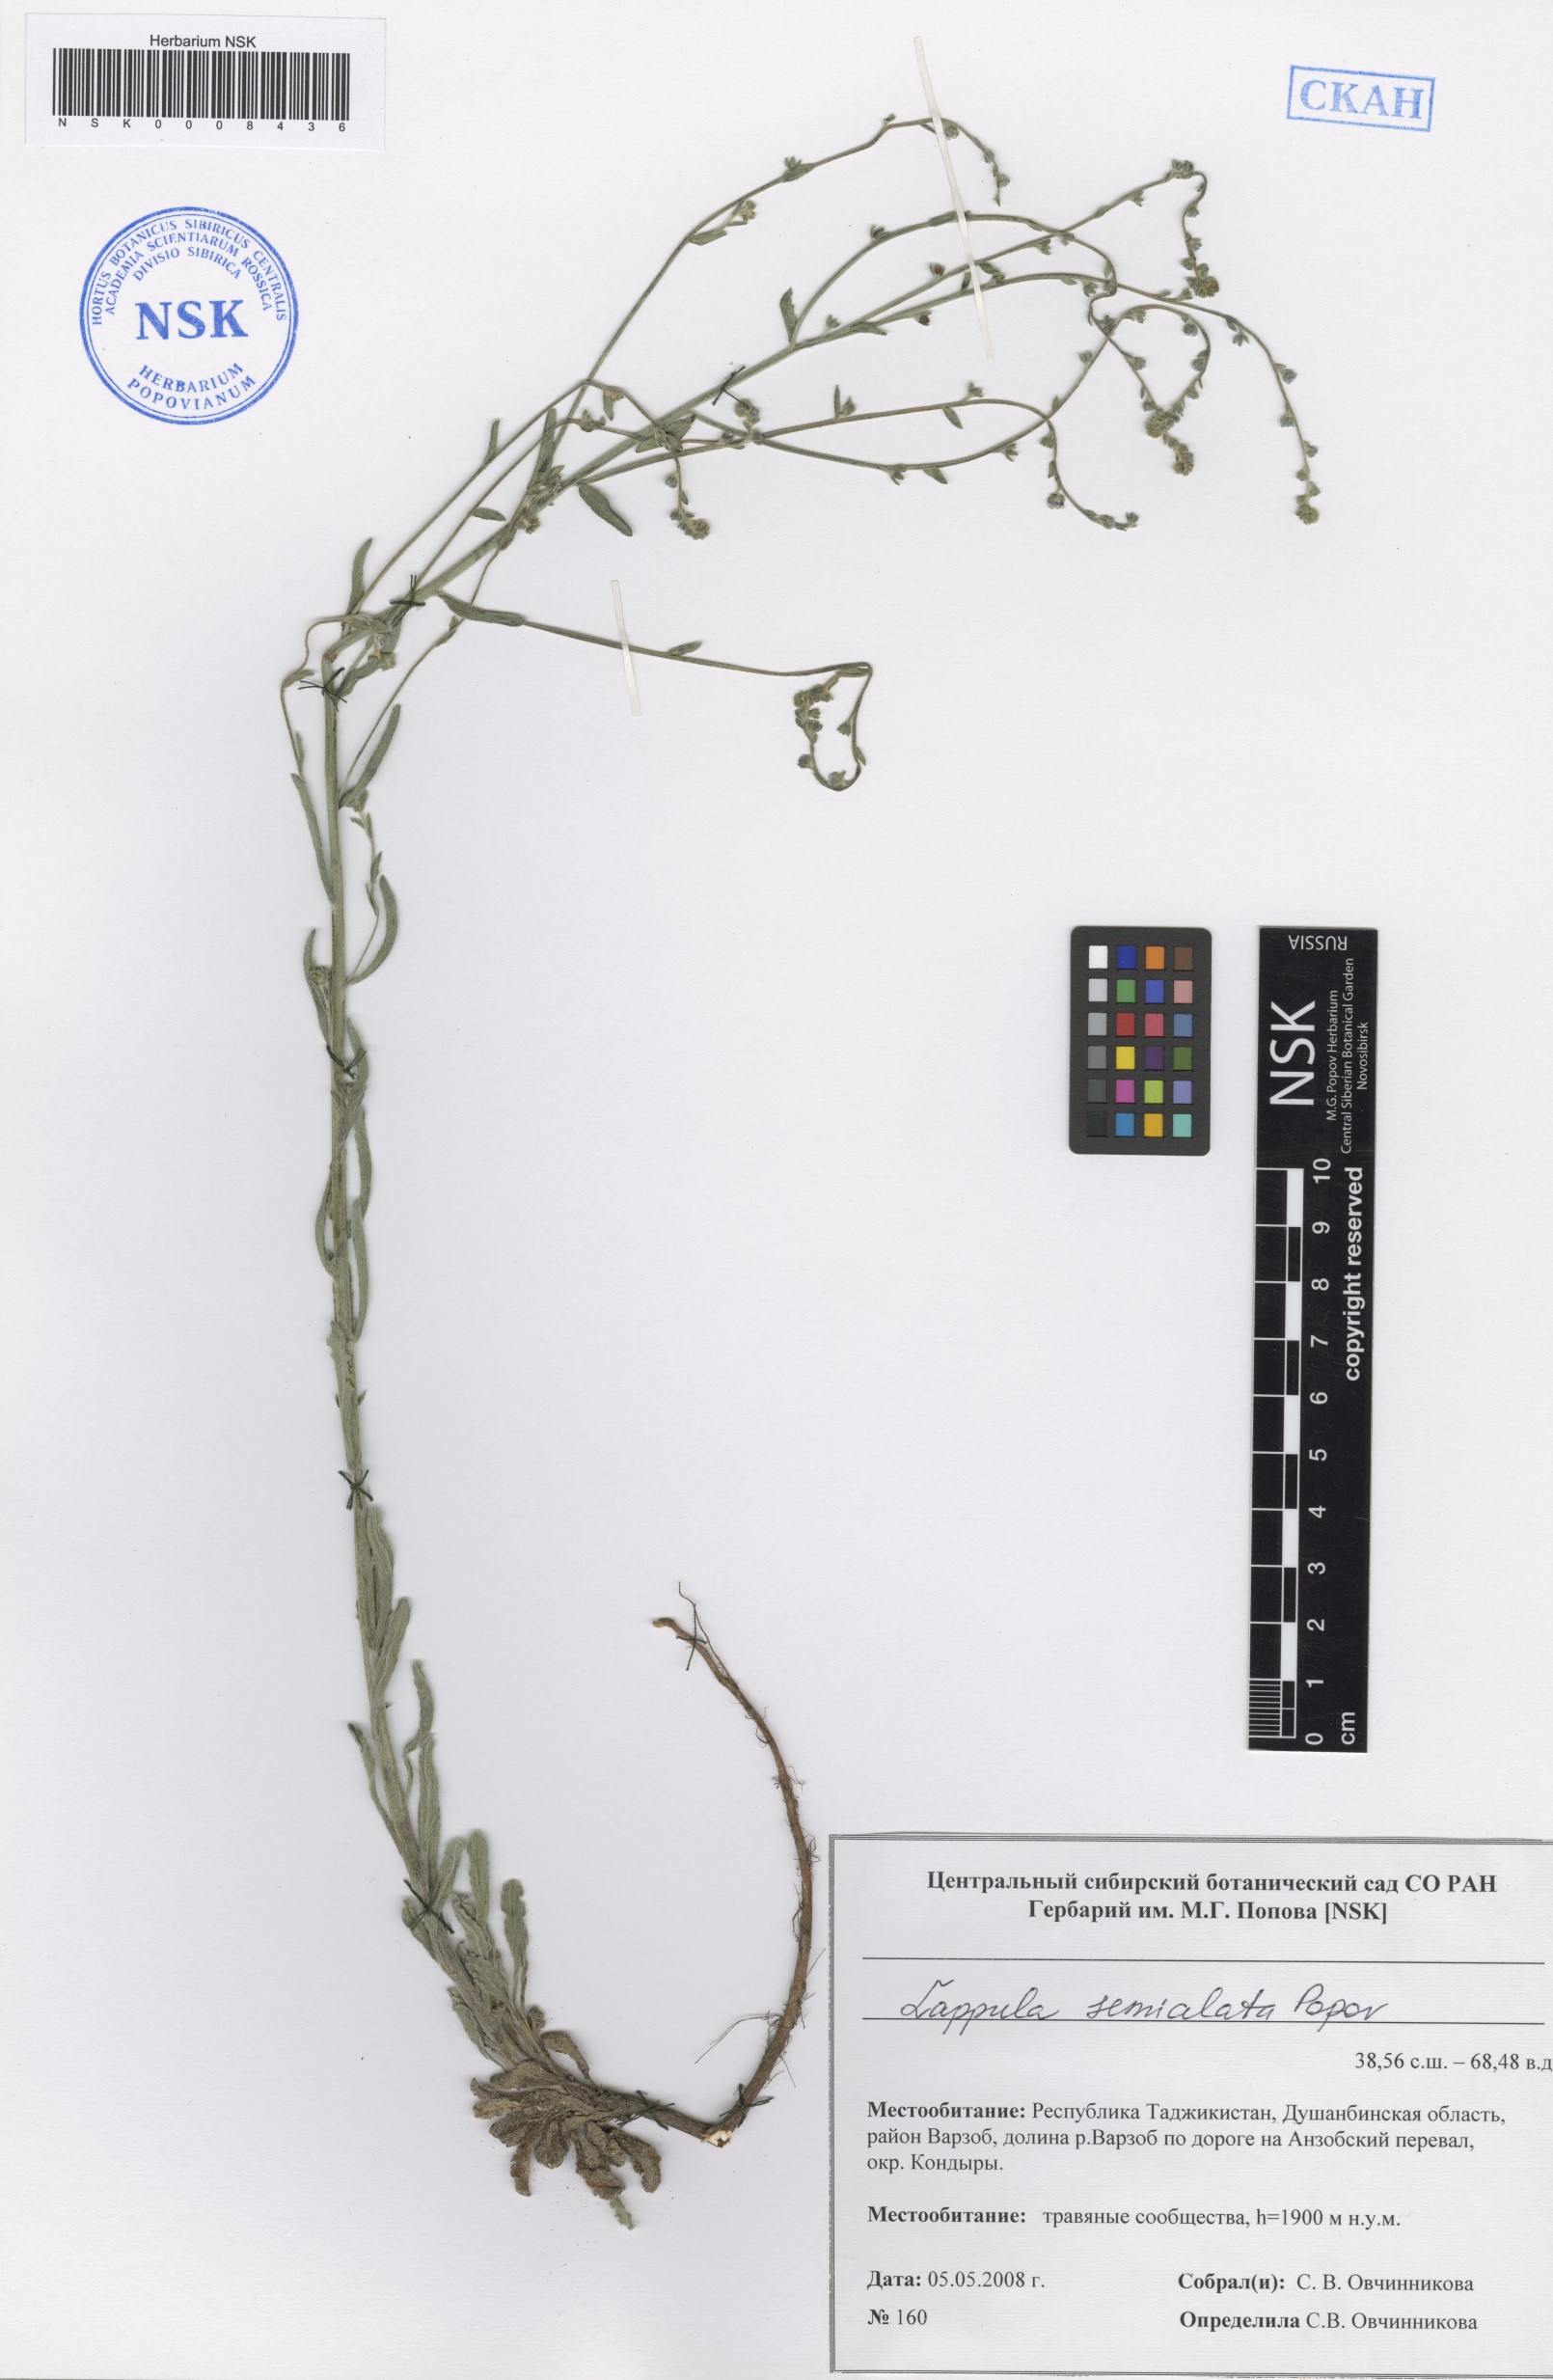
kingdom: Plantae
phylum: Tracheophyta
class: Magnoliopsida
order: Boraginales
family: Boraginaceae
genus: Lappula
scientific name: Lappula semialata
